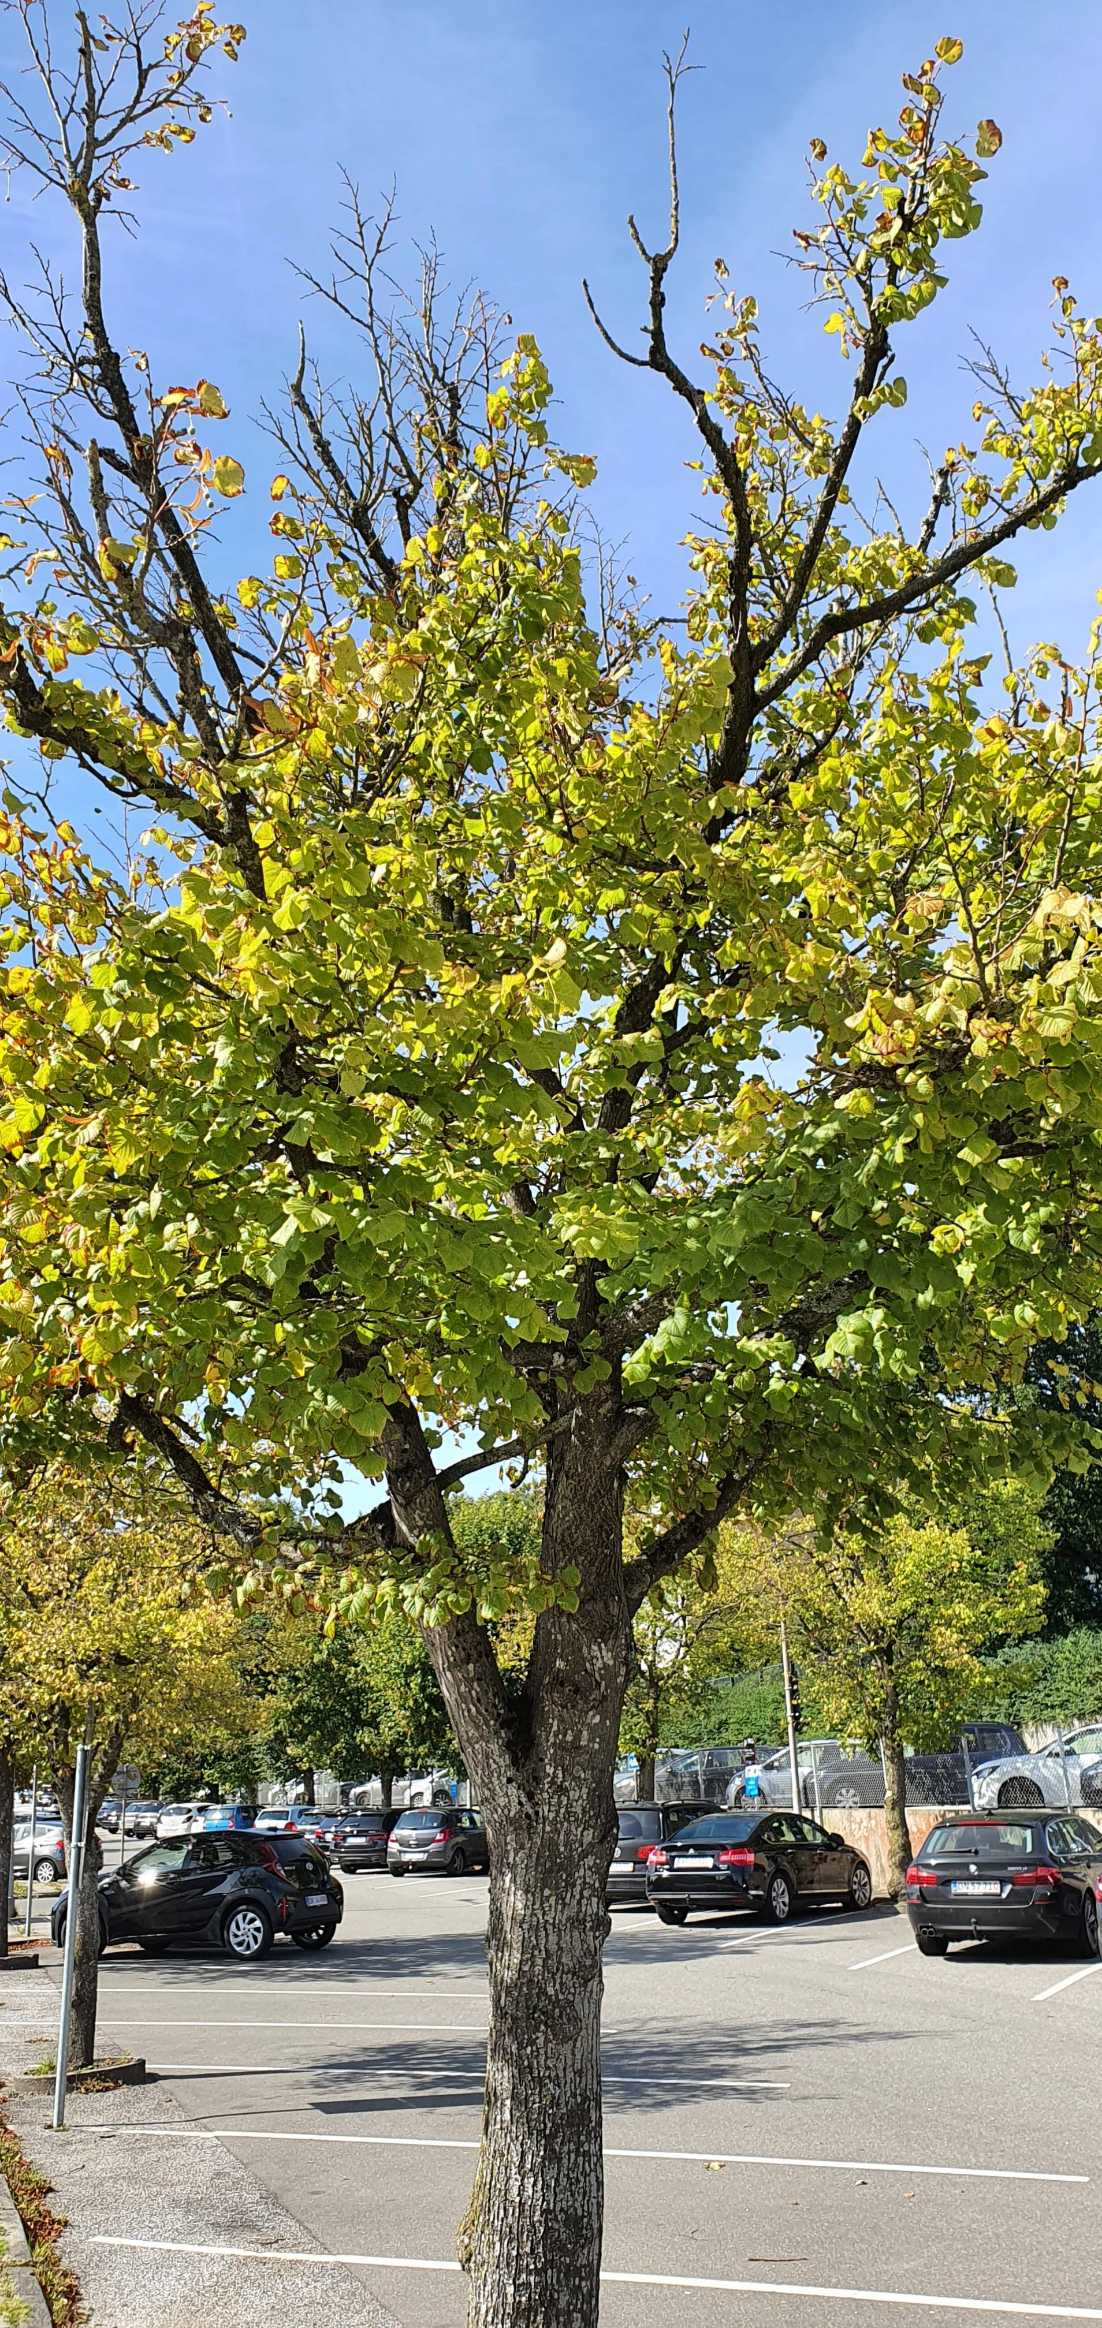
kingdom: Plantae
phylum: Tracheophyta
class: Magnoliopsida
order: Malvales
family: Malvaceae
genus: Tilia
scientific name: Tilia europaea
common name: Park-lind
